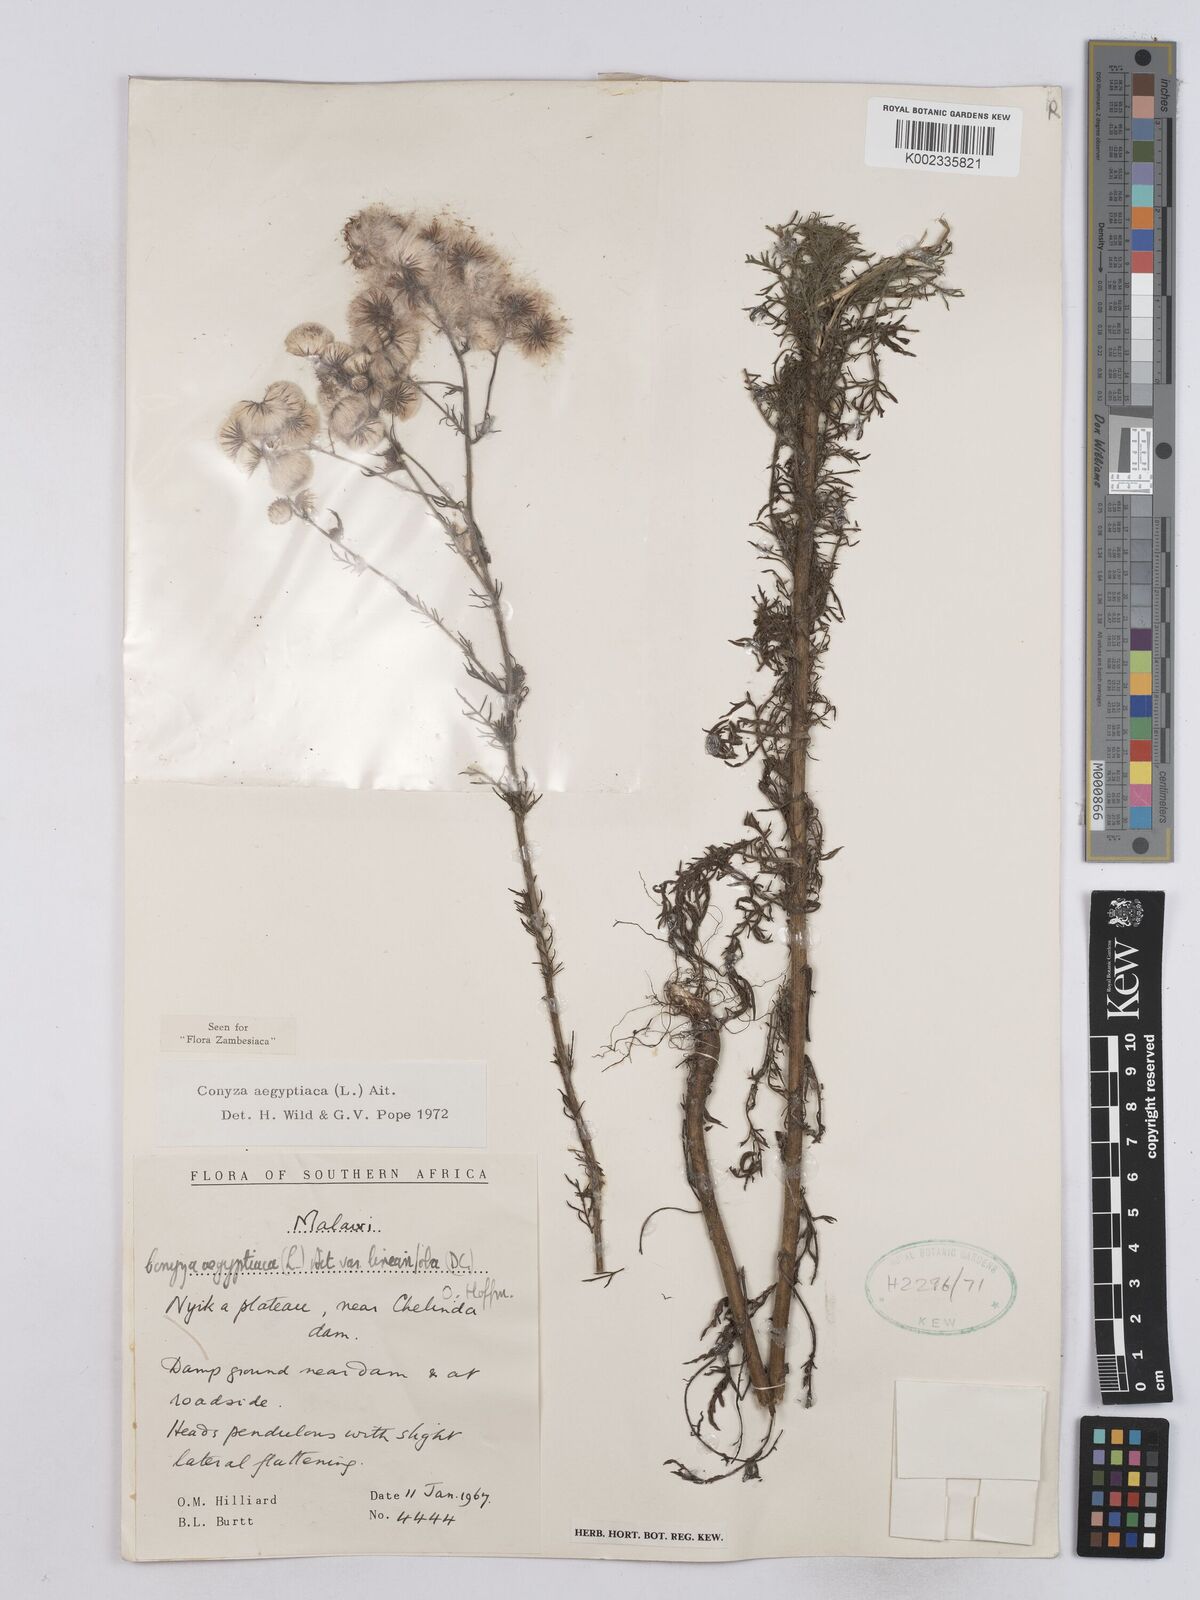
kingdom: Plantae
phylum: Tracheophyta
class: Magnoliopsida
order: Asterales
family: Asteraceae
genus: Nidorella
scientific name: Nidorella aegyptiaca
